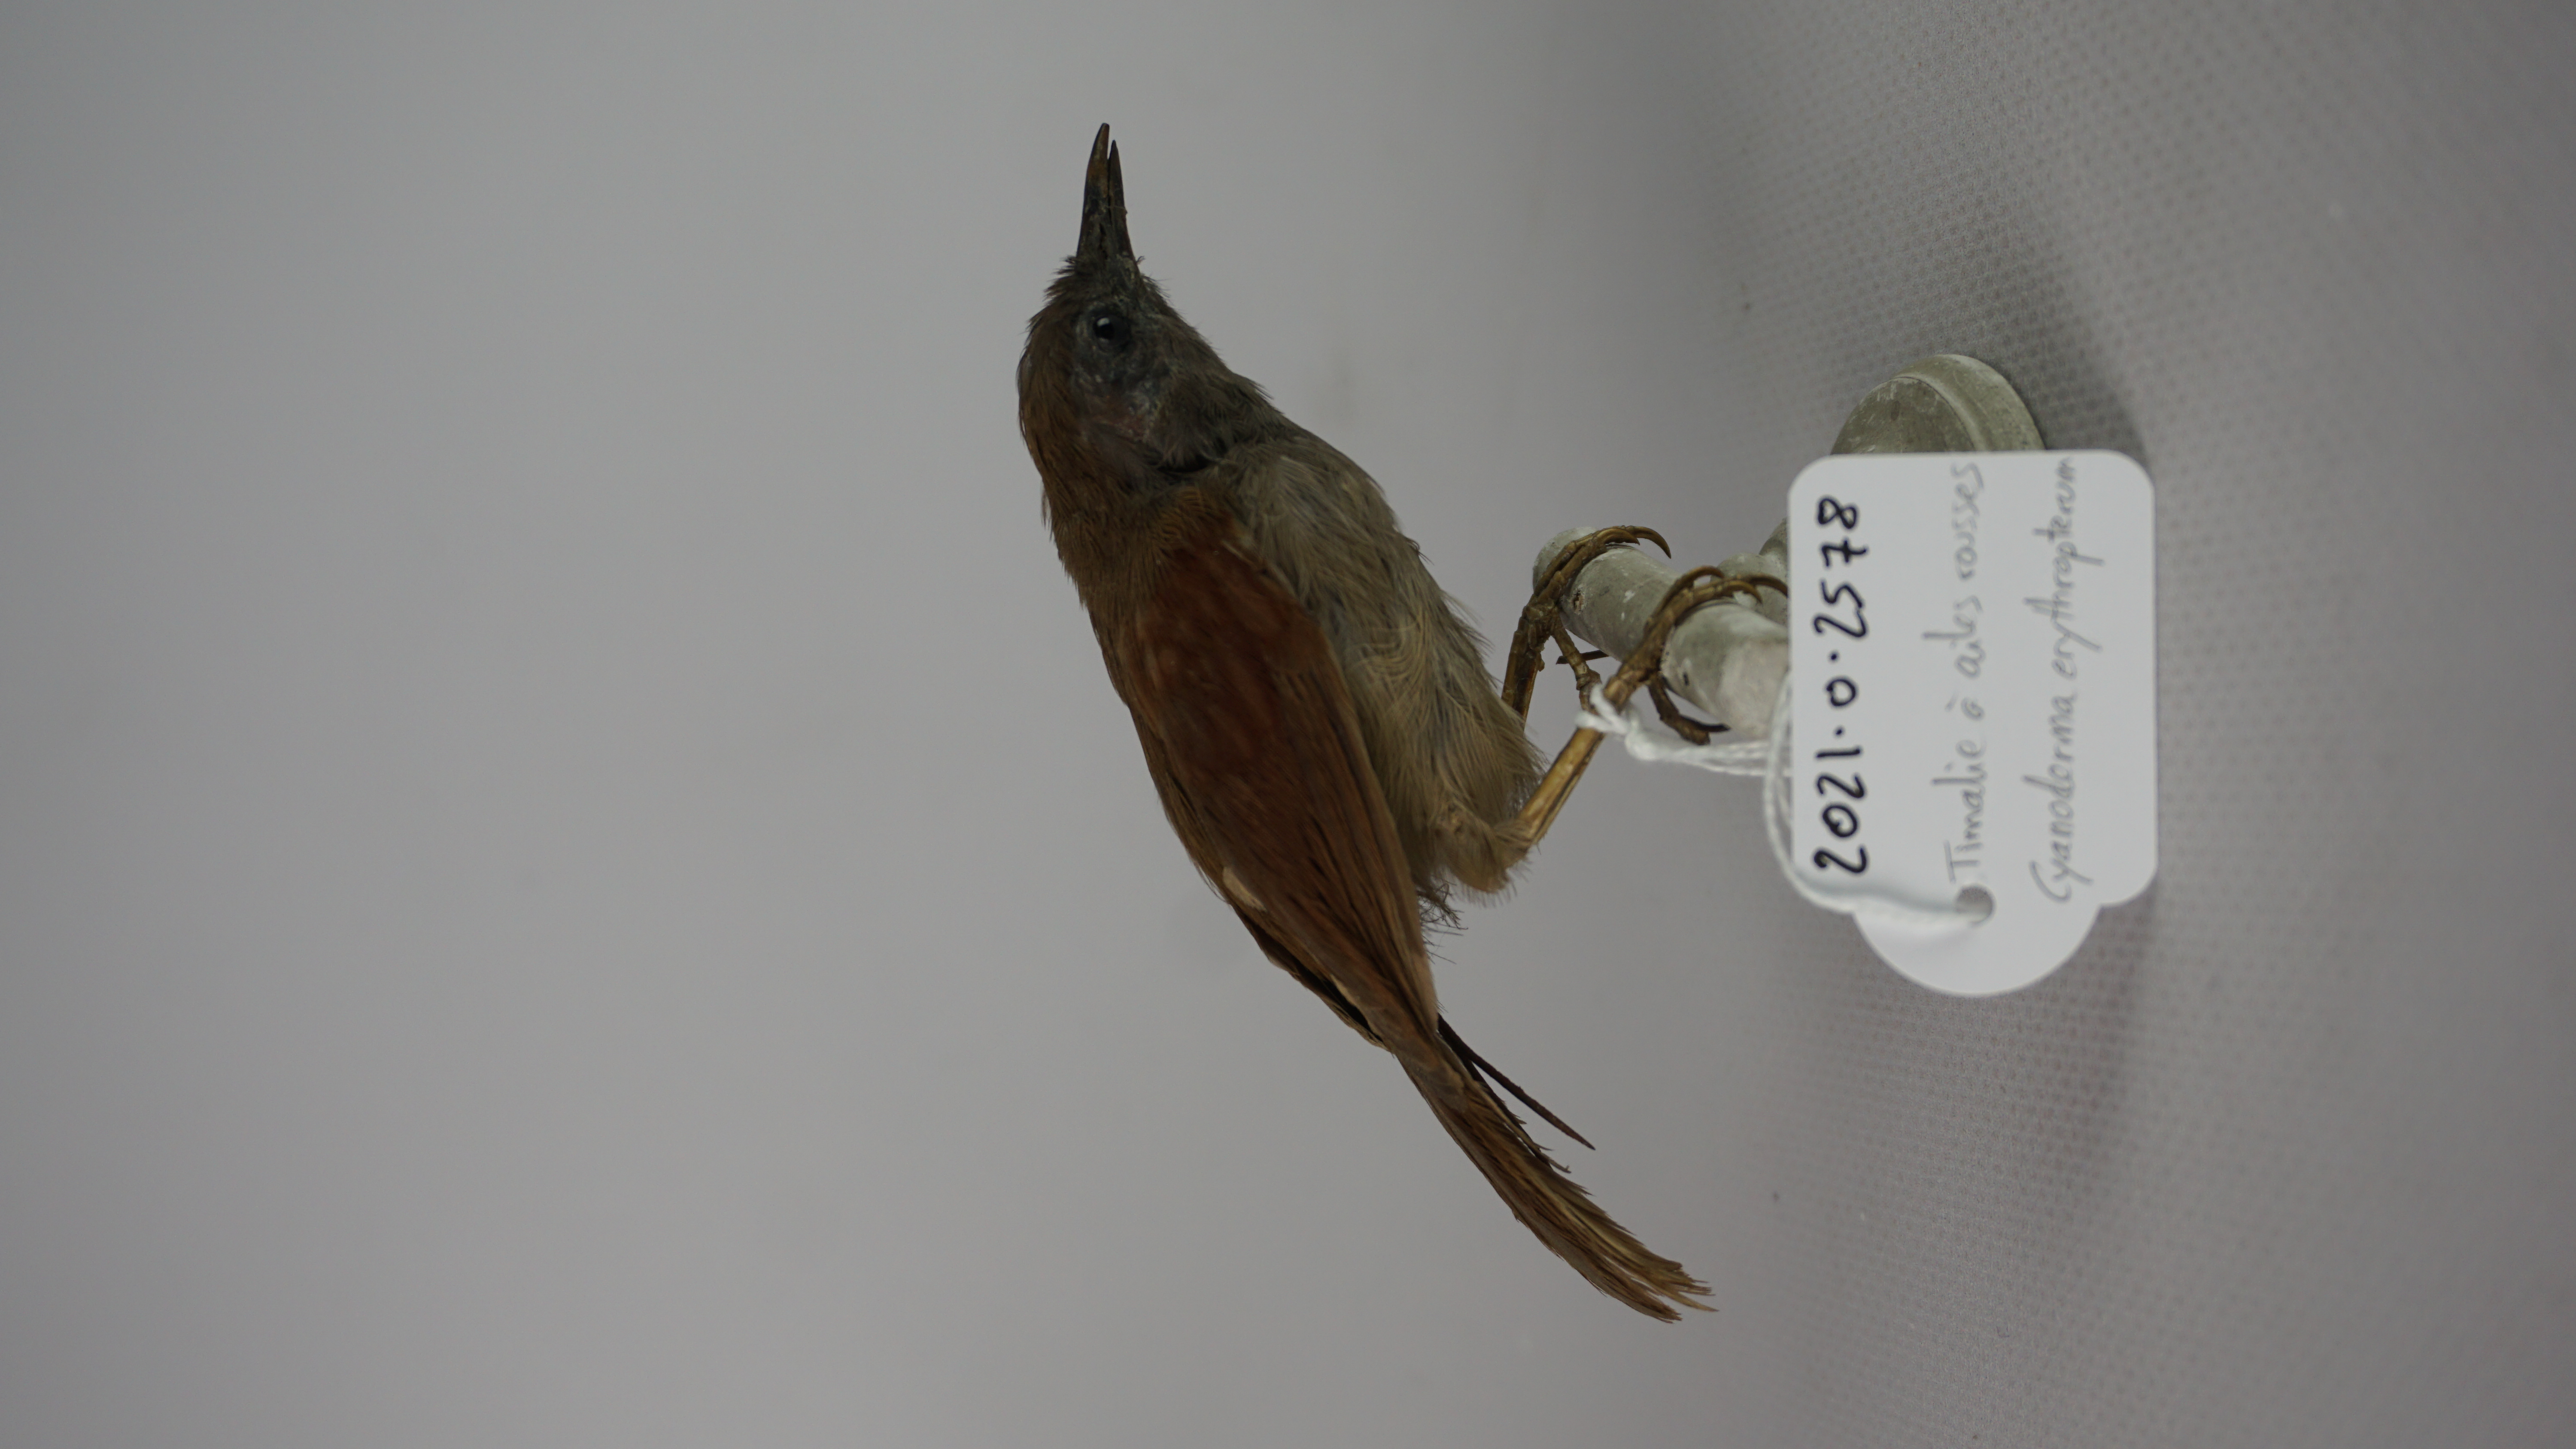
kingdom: Animalia
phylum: Chordata
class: Aves
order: Passeriformes
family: Timaliidae
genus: Stachyris
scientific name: Stachyris erythroptera
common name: Chestnut-winged babbler
